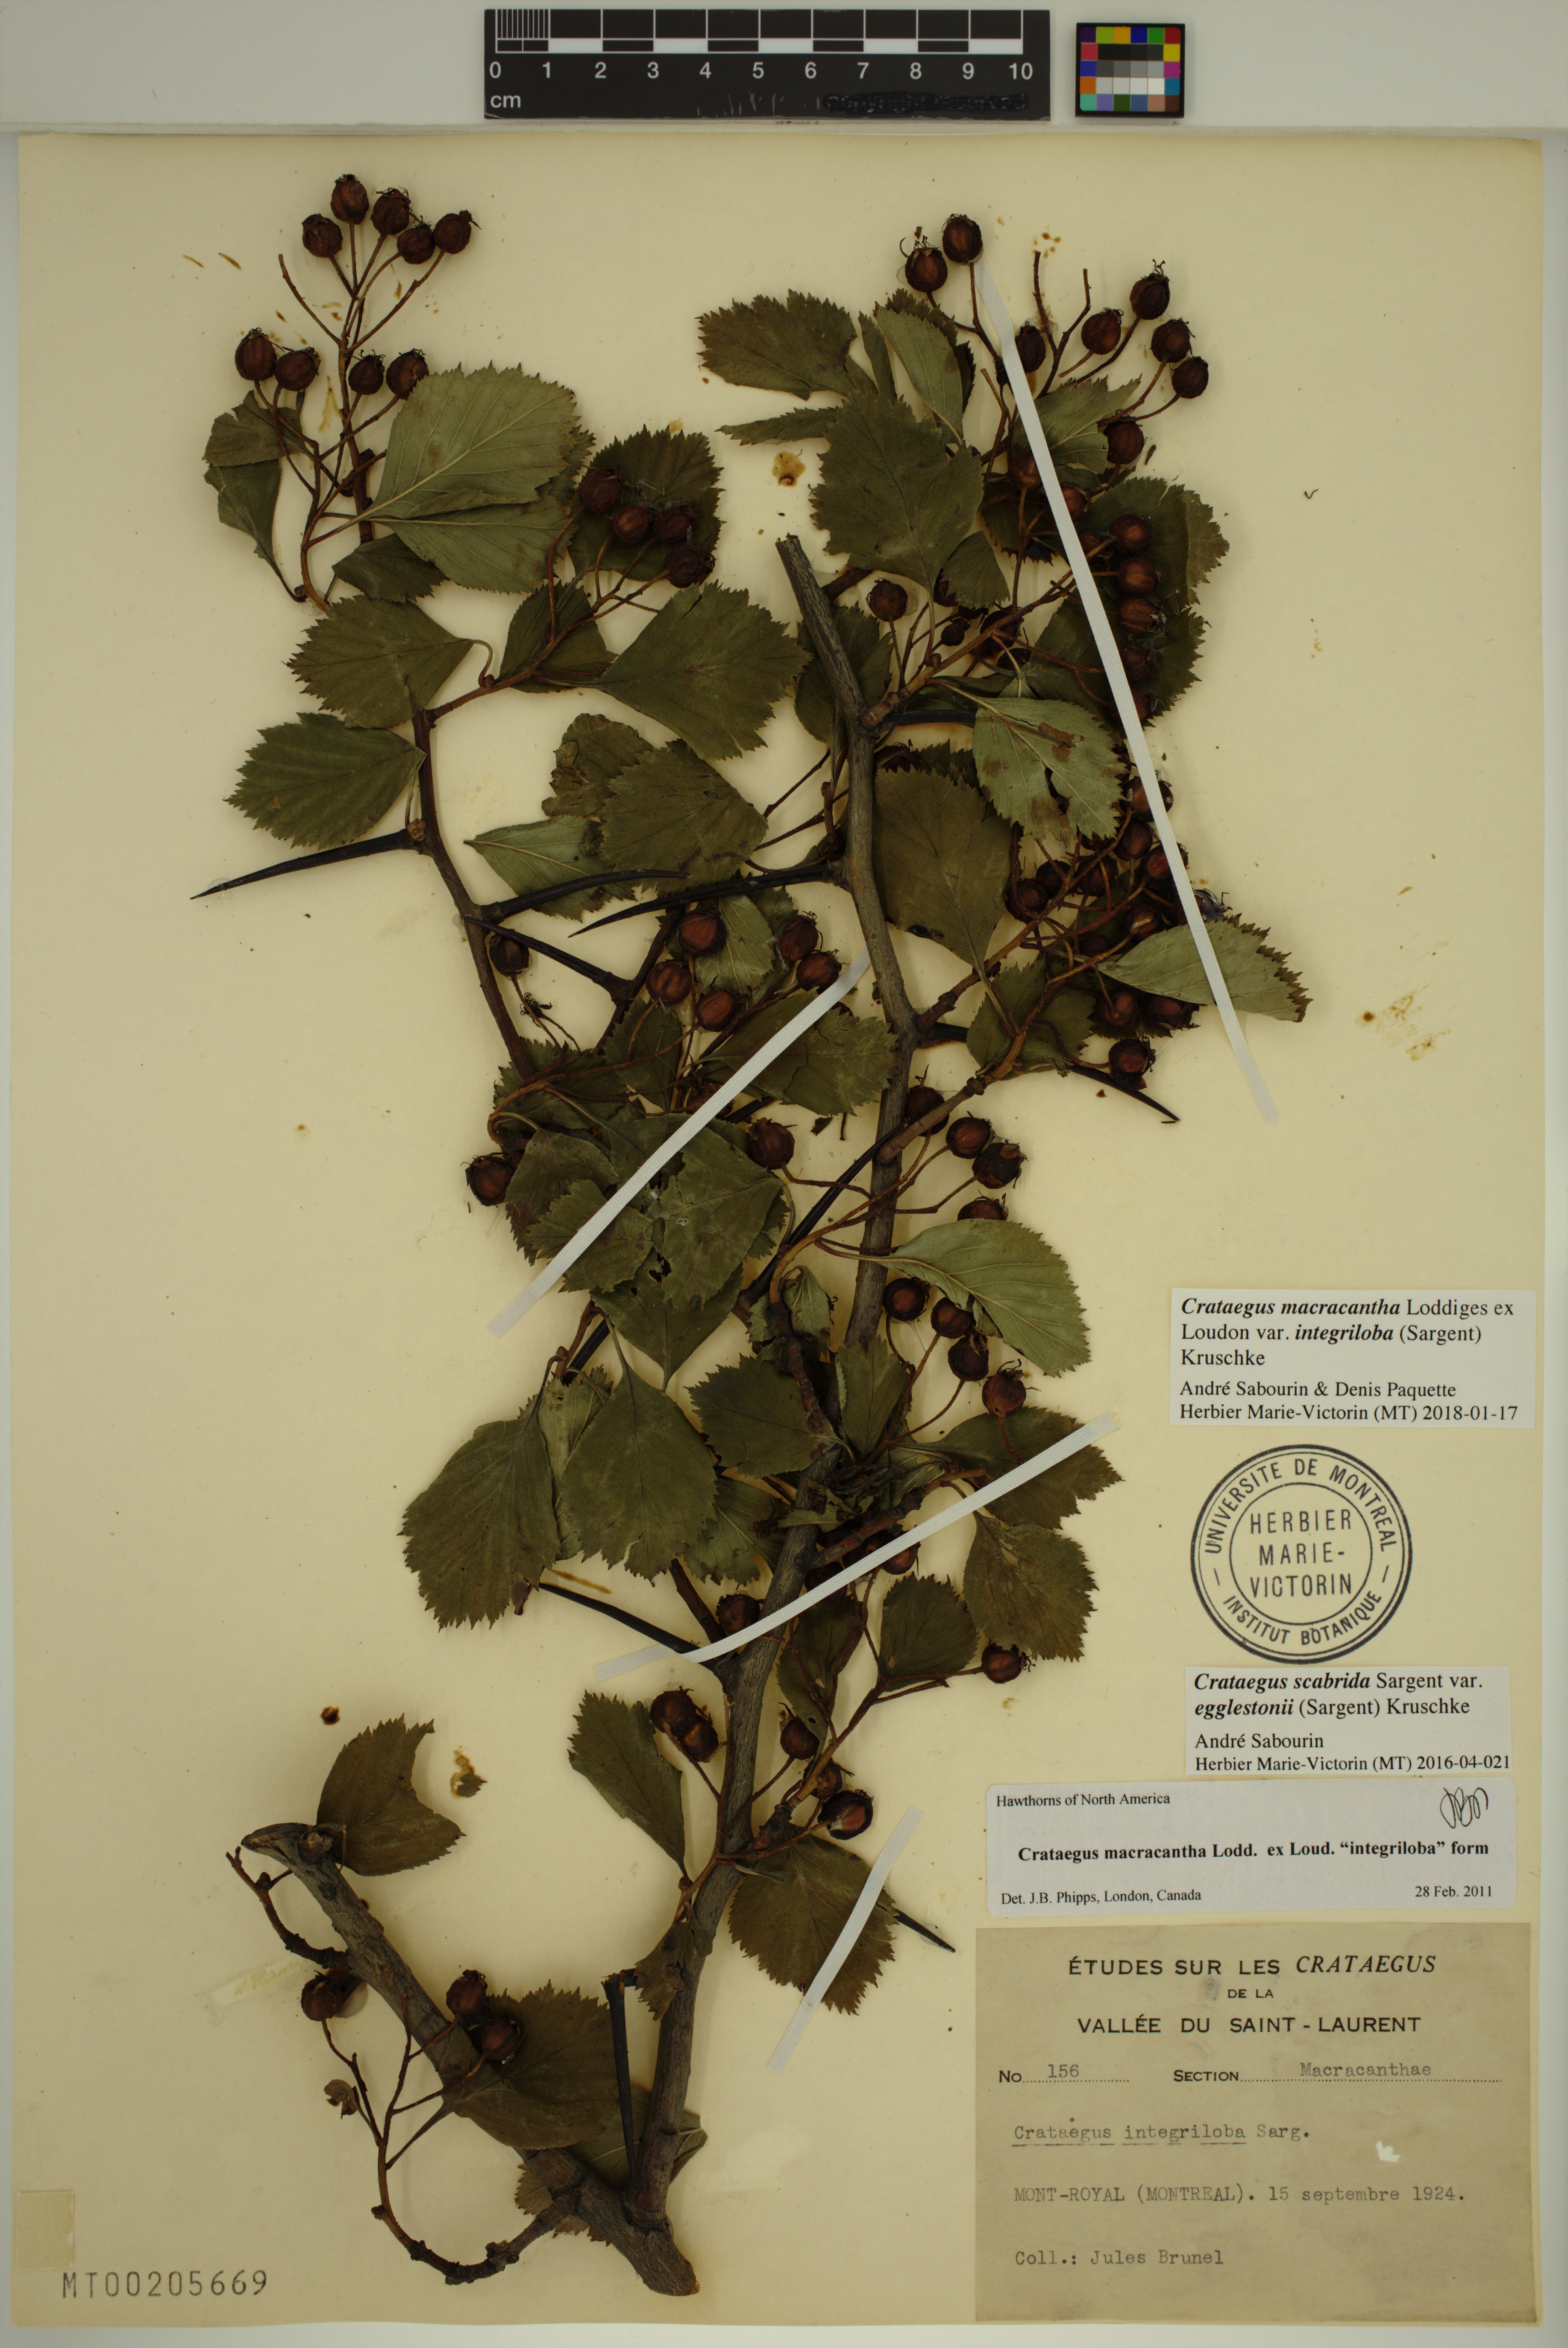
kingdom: Plantae
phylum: Tracheophyta
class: Magnoliopsida
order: Rosales
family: Rosaceae
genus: Crataegus
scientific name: Crataegus succulenta
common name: Fleshy hawthorn
